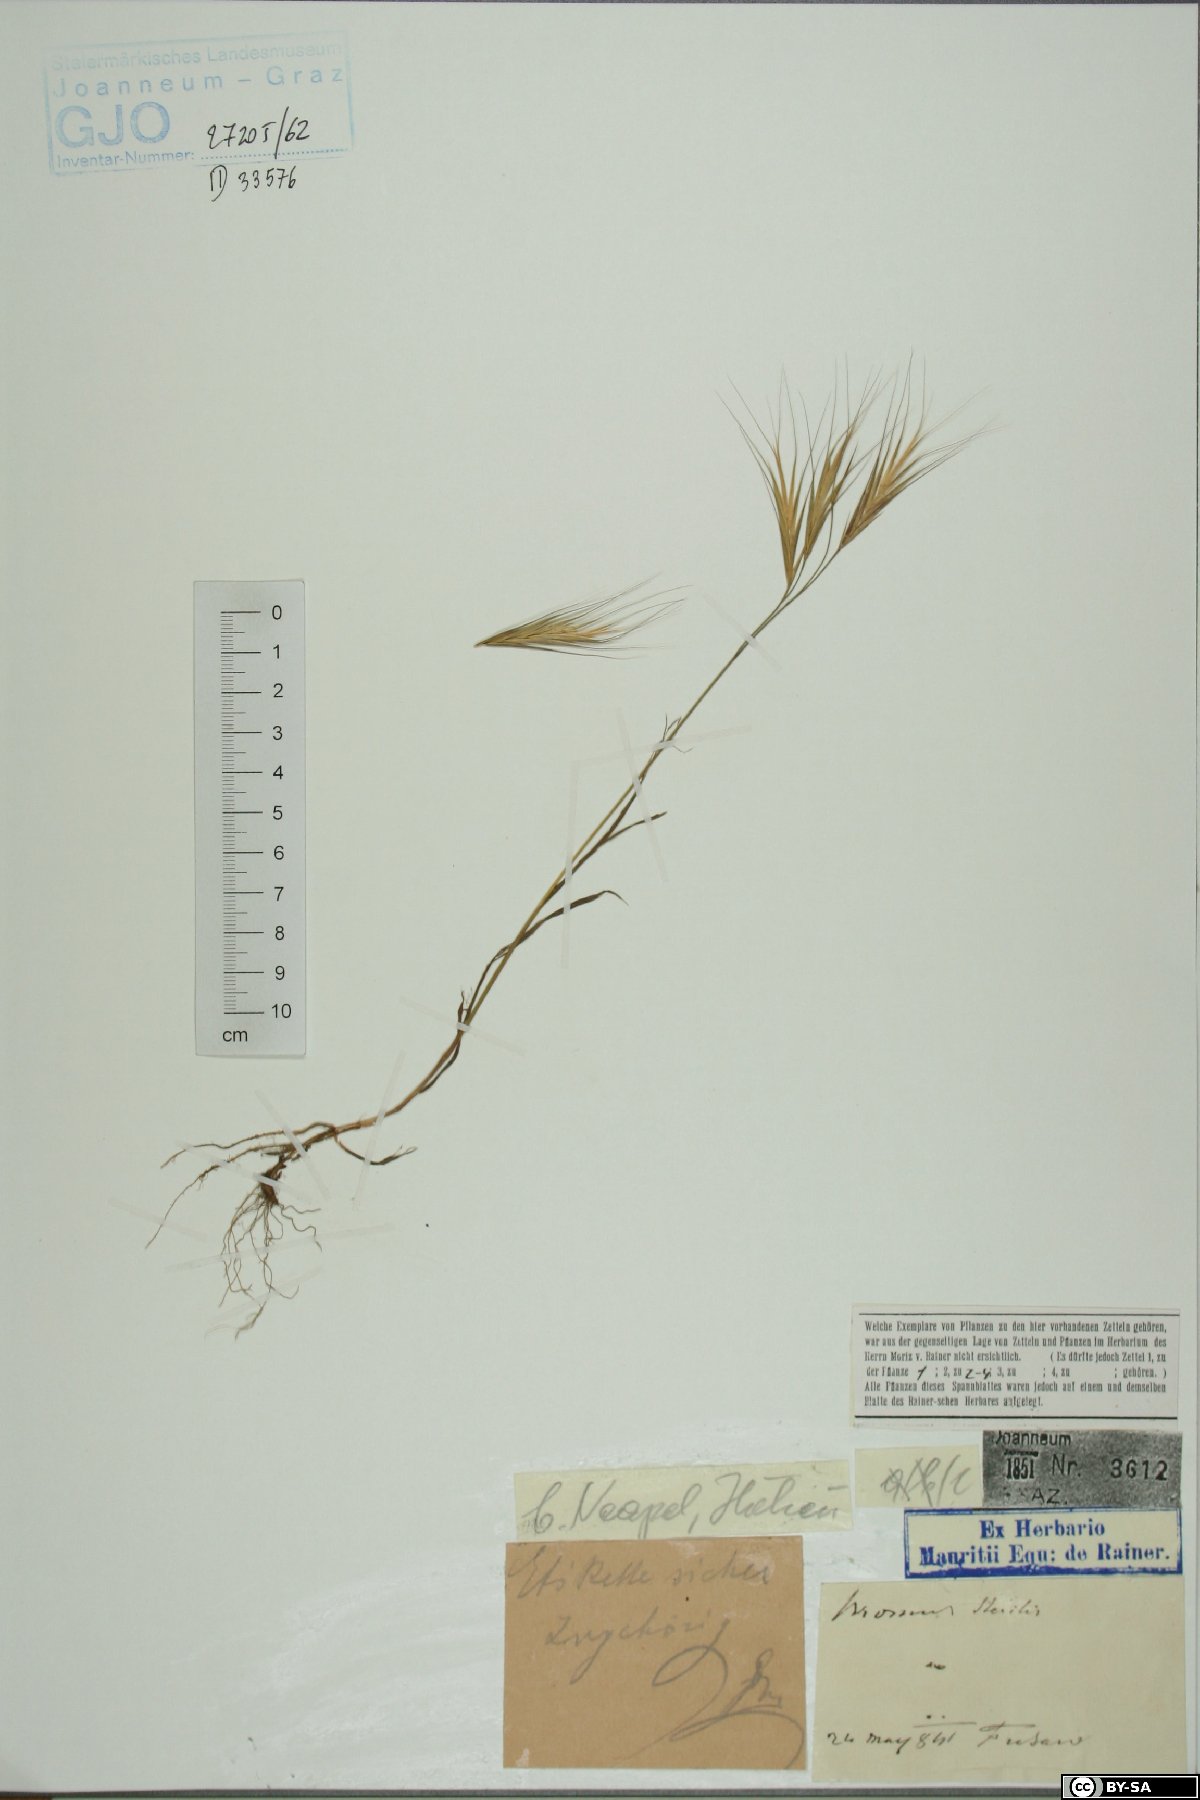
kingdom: Plantae
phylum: Tracheophyta
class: Liliopsida
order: Poales
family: Poaceae
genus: Bromus
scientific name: Bromus sterilis
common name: Poverty brome
